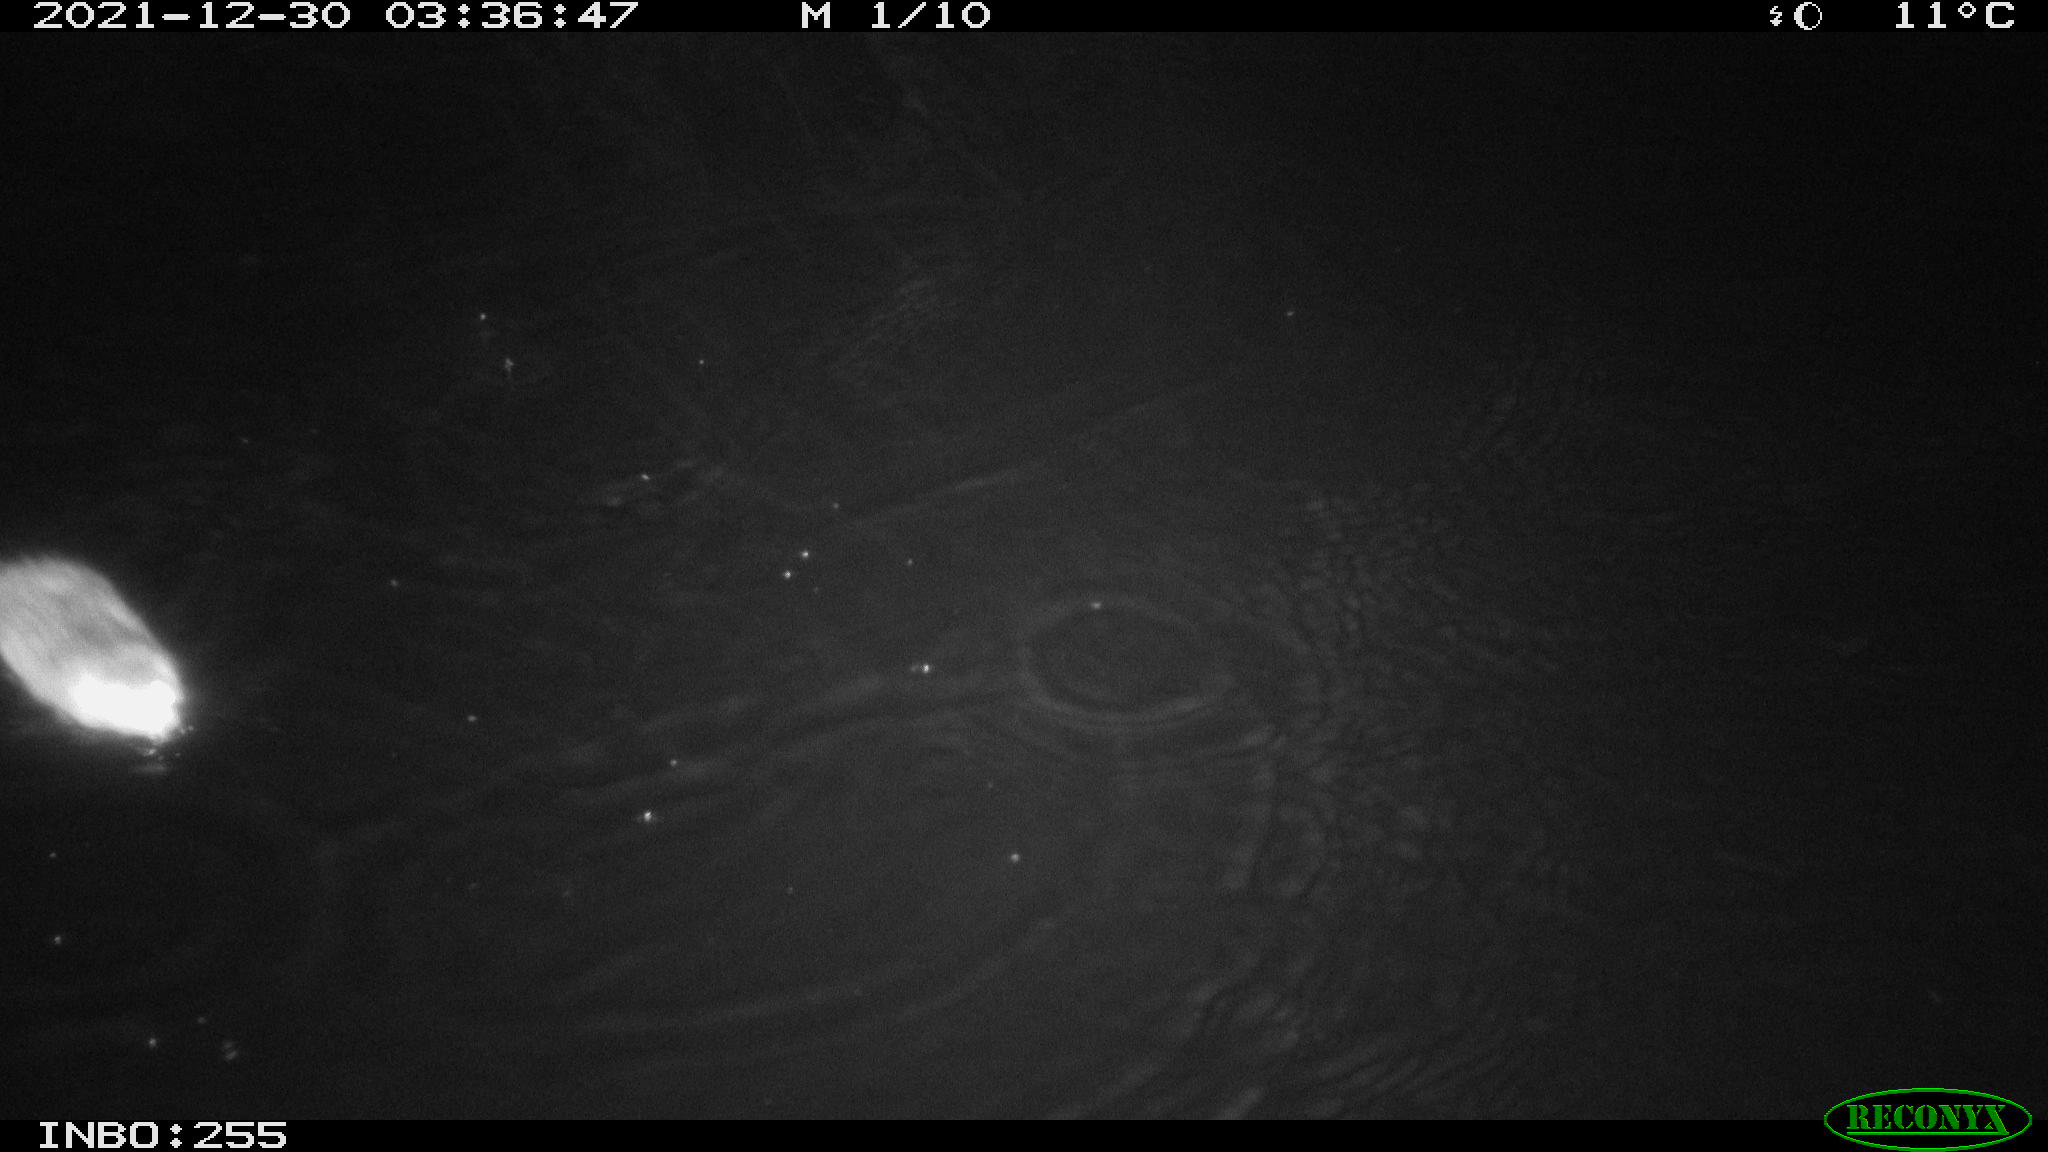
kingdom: Animalia
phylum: Chordata
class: Mammalia
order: Rodentia
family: Muridae
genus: Rattus
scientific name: Rattus norvegicus
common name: Brown rat
